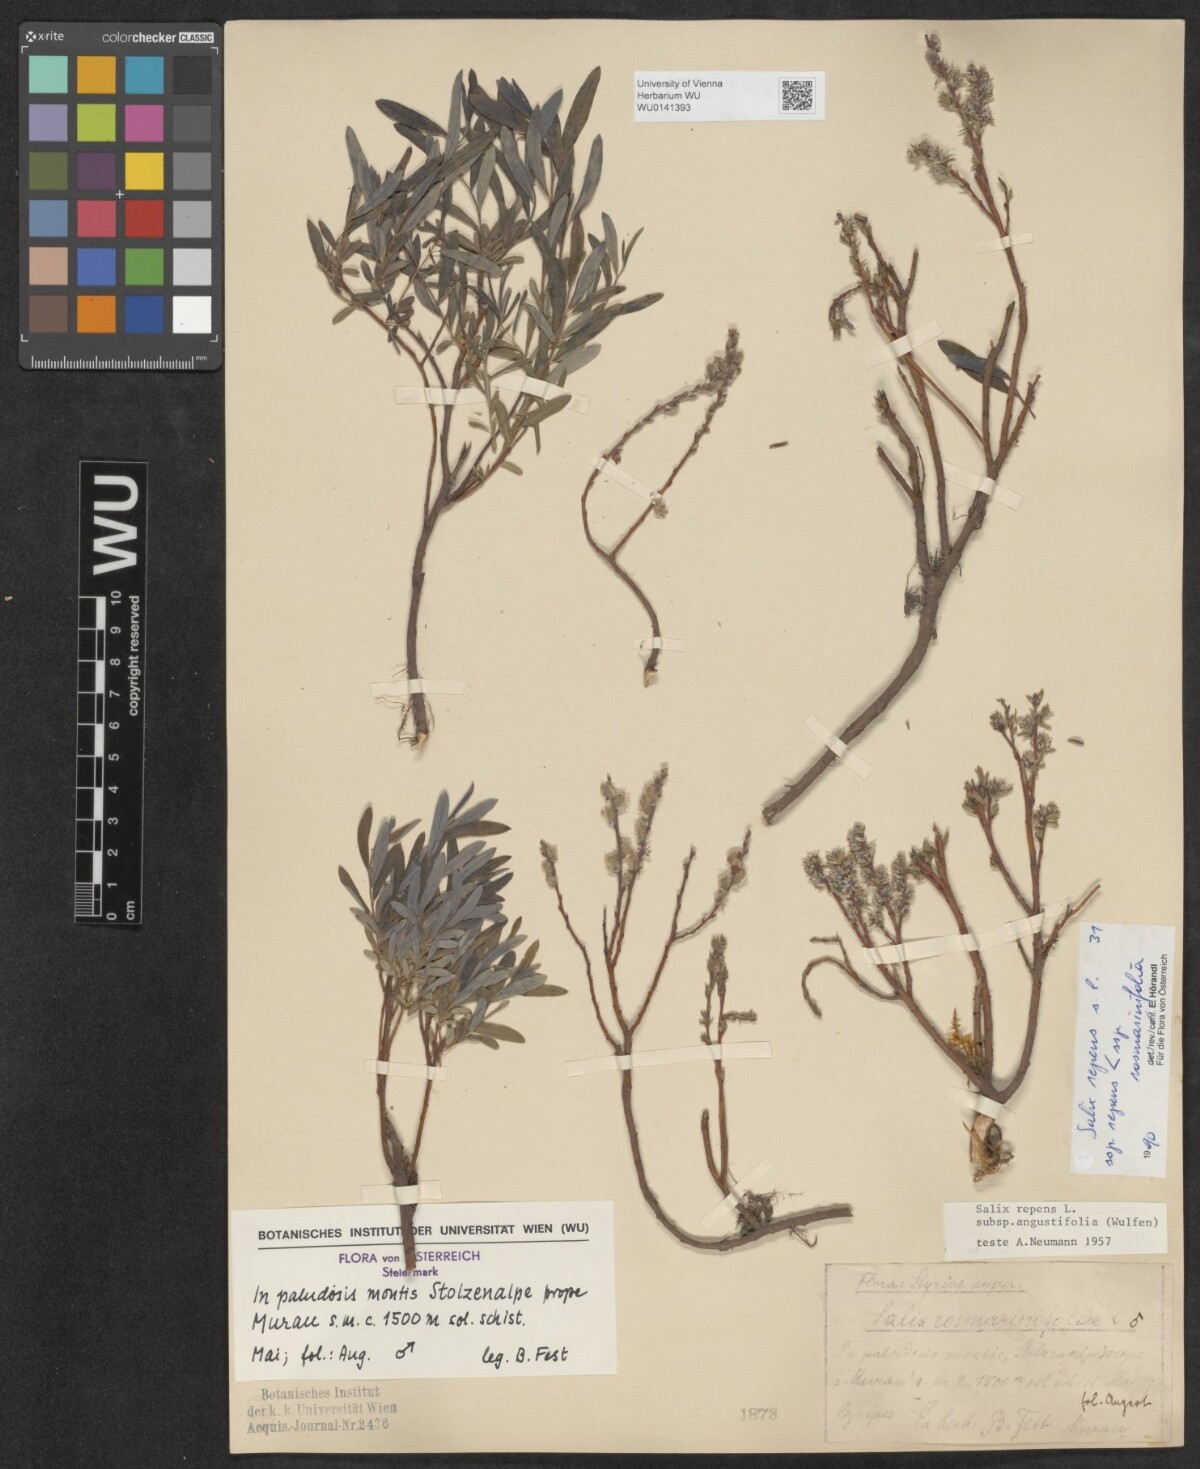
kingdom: Plantae
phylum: Tracheophyta
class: Magnoliopsida
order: Malpighiales
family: Salicaceae
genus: Salix
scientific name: Salix repens
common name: Creeping willow
